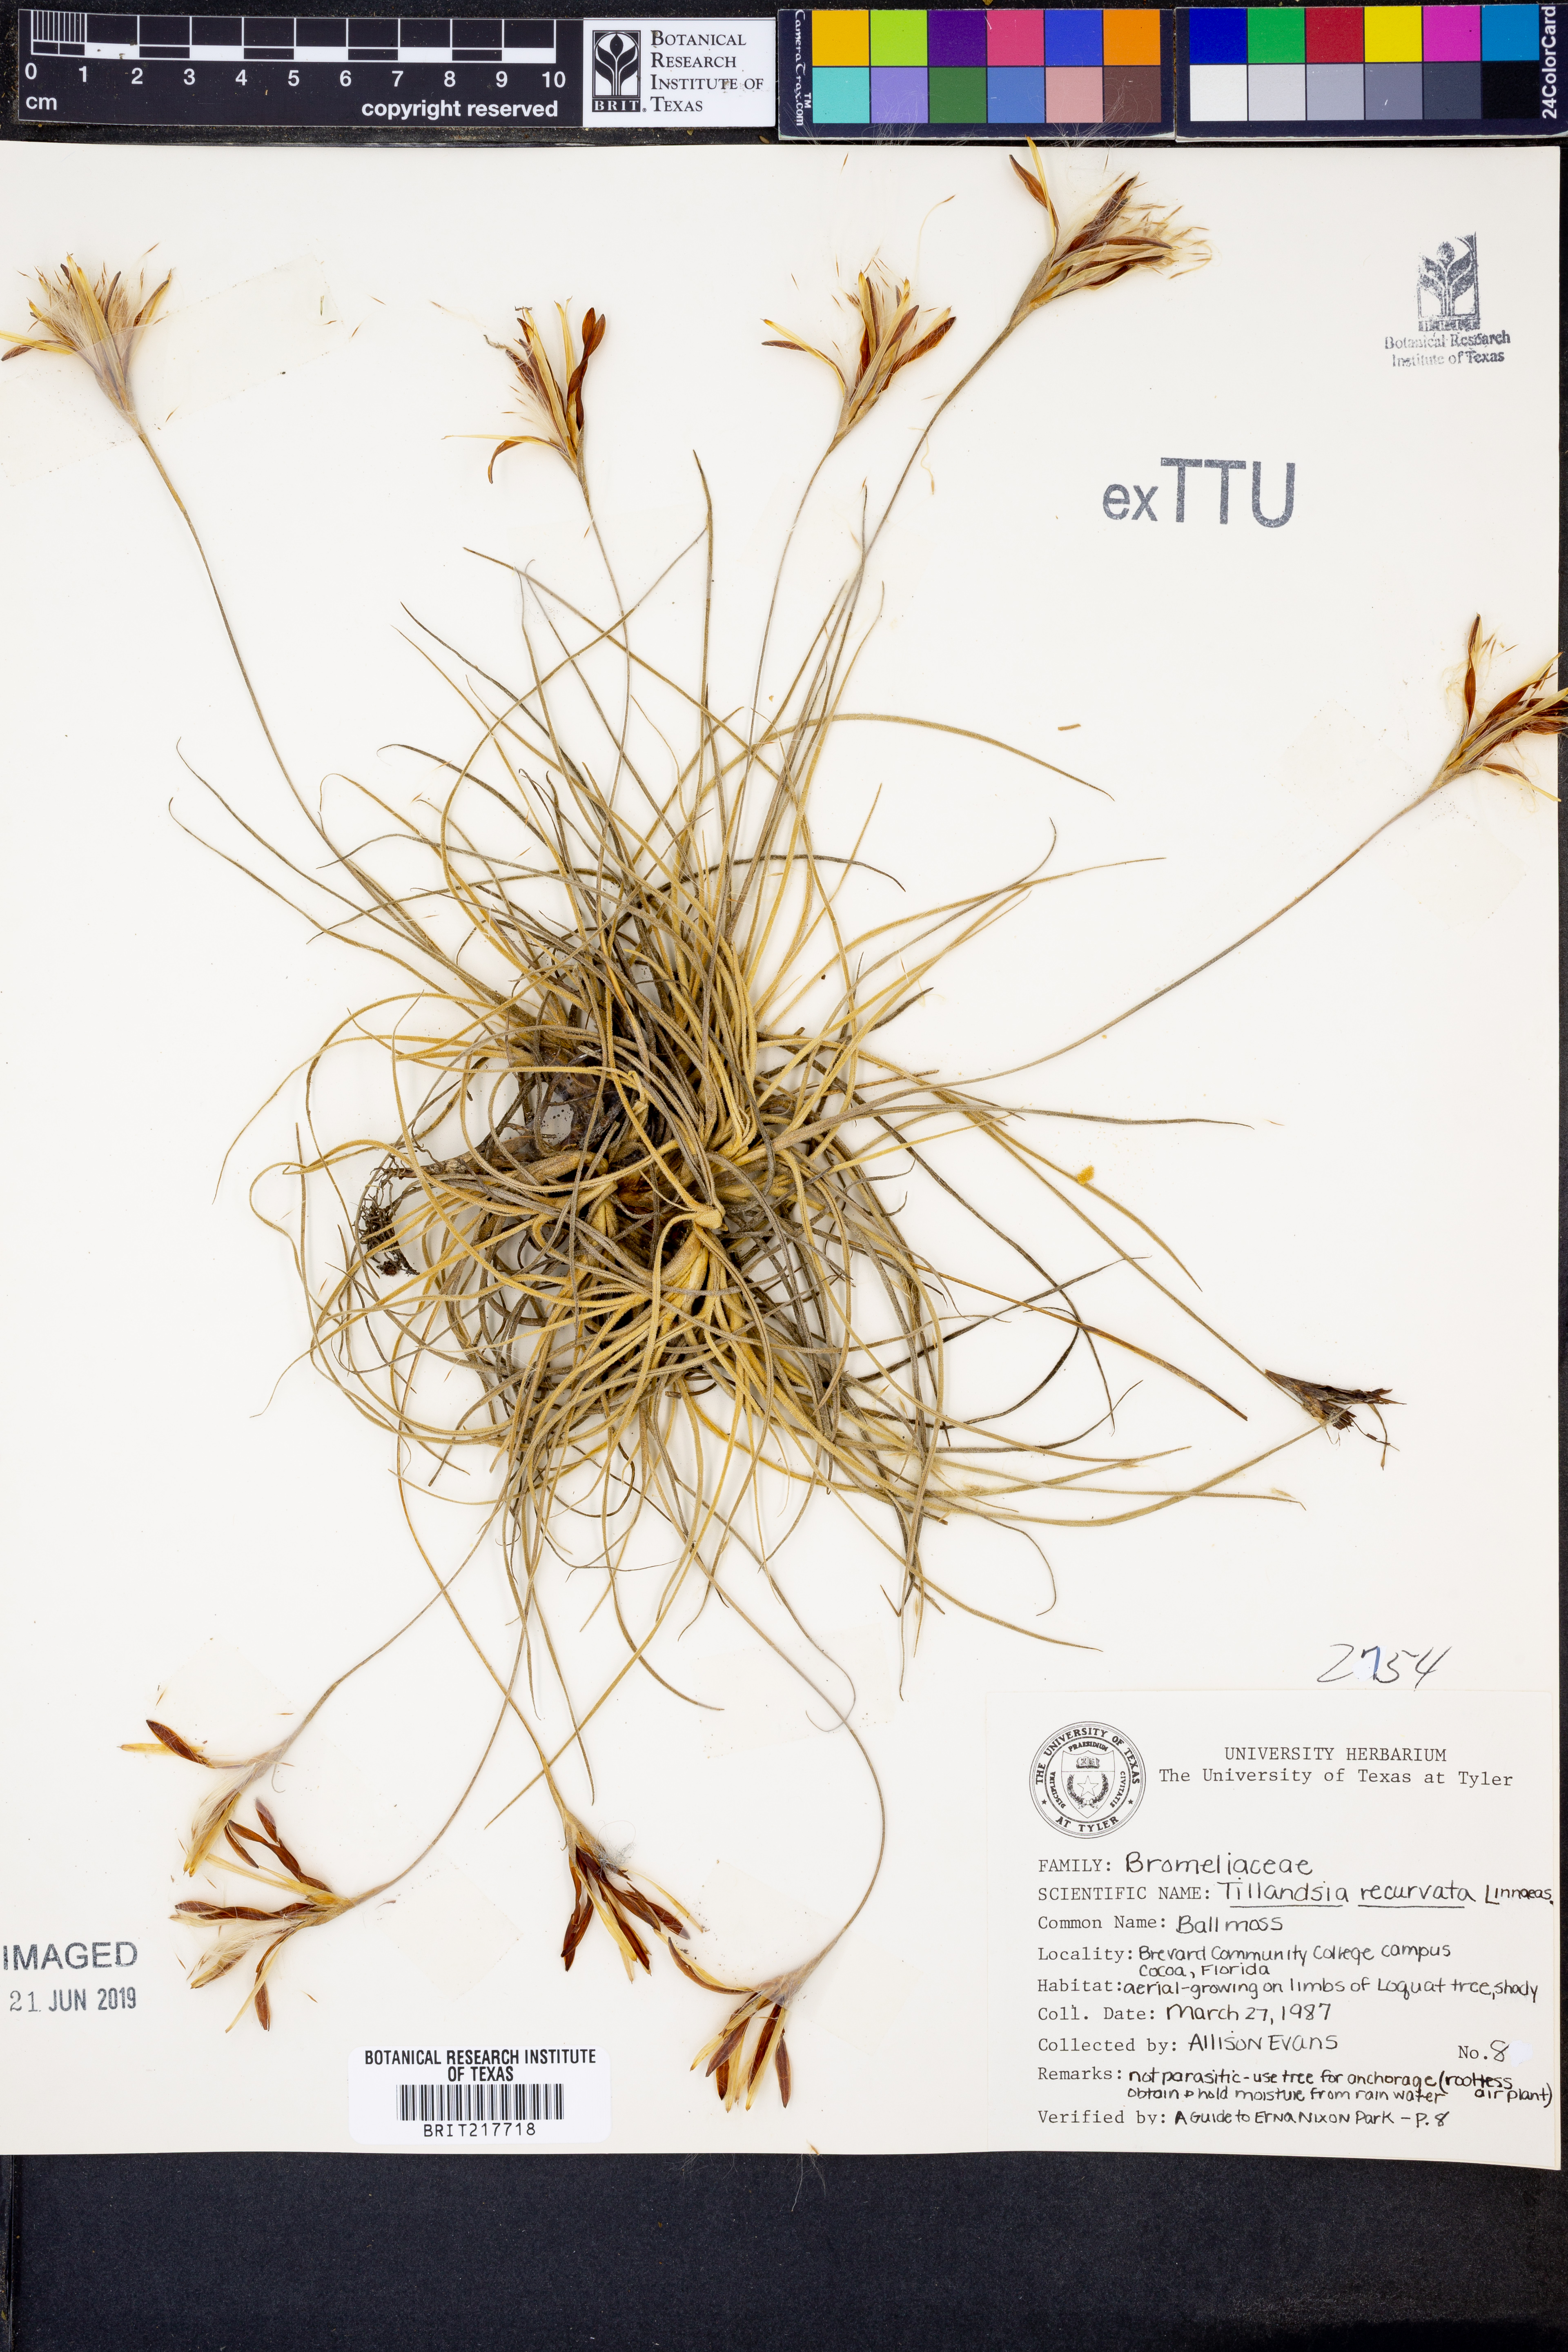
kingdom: Plantae
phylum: Tracheophyta
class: Liliopsida
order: Poales
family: Bromeliaceae
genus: Tillandsia
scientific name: Tillandsia recurvata
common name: Small ballmoss
